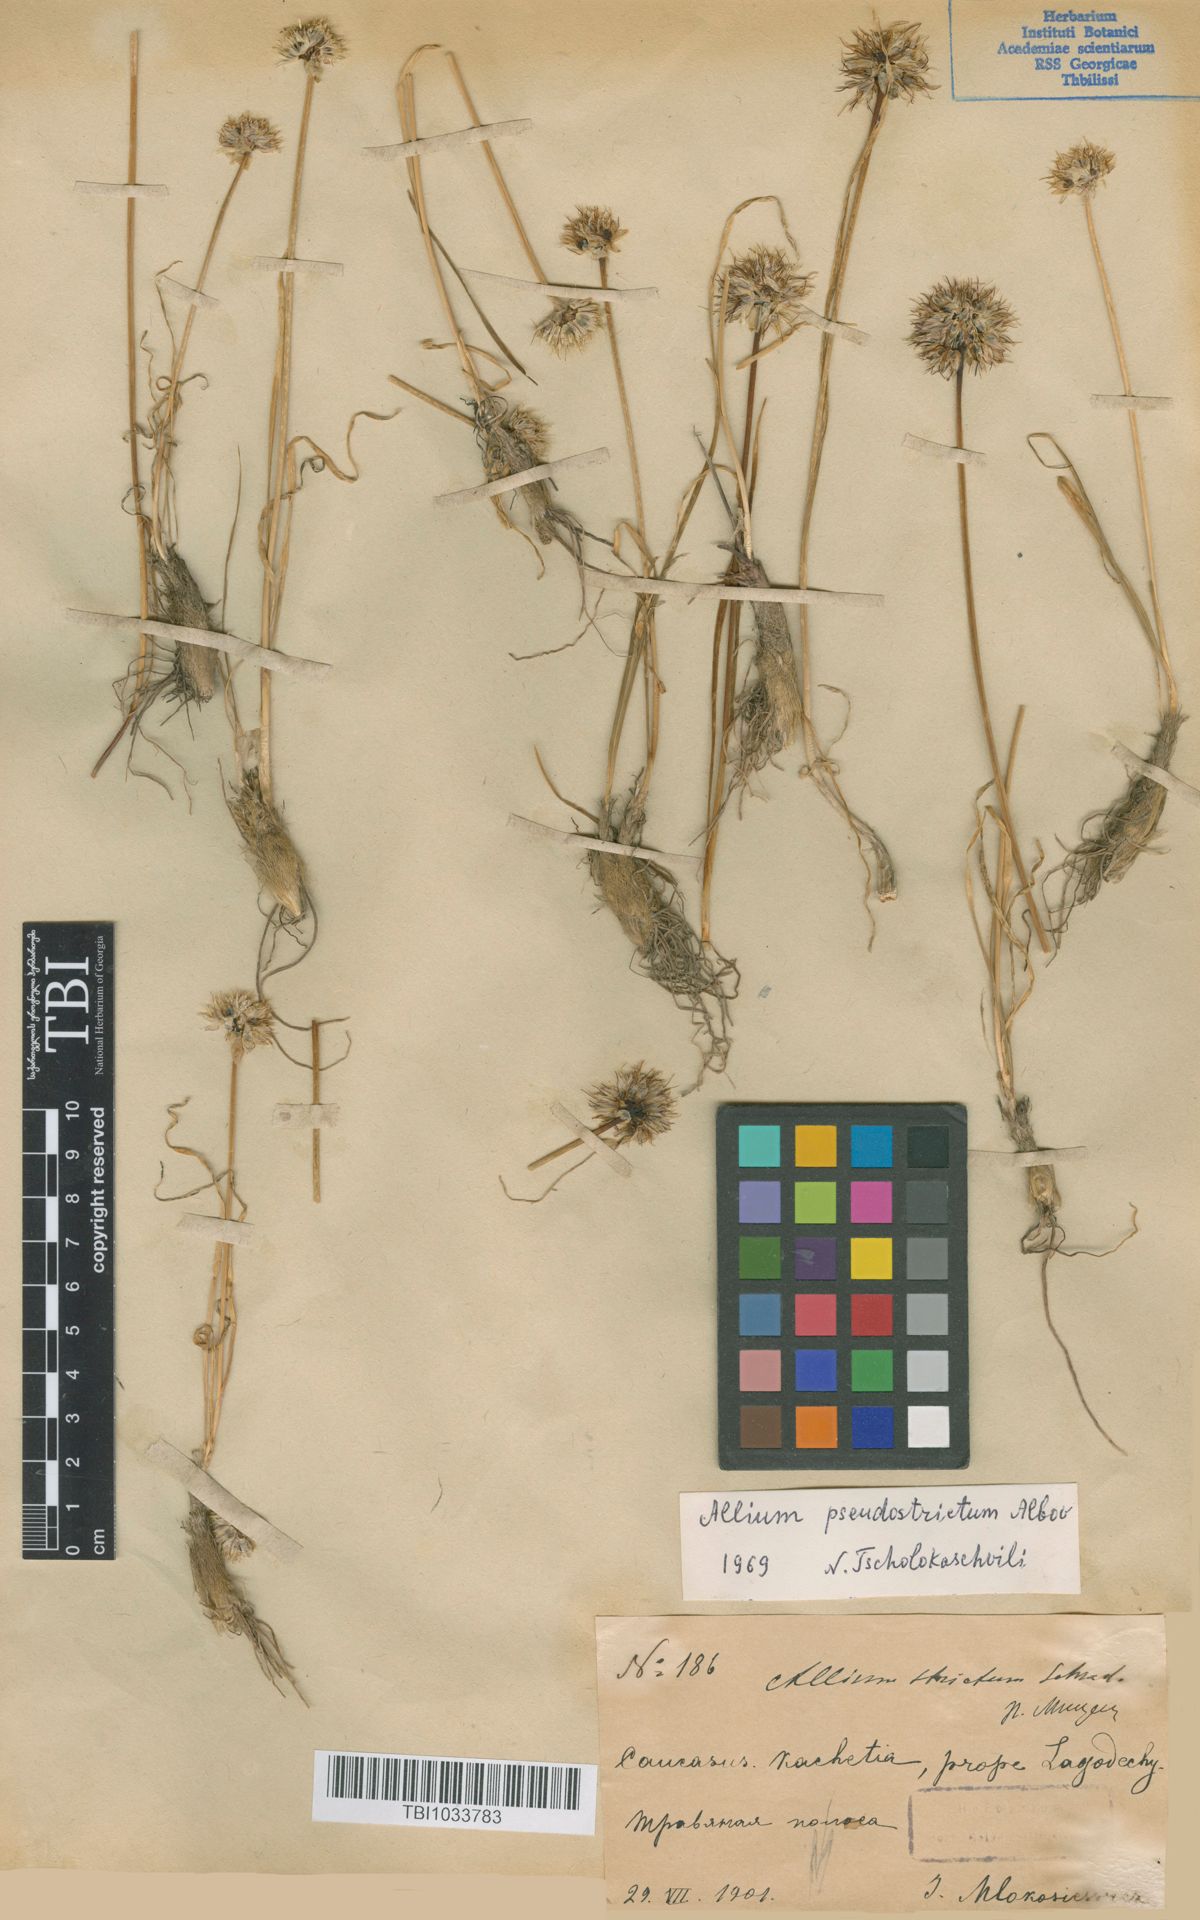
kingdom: Plantae
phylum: Tracheophyta
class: Liliopsida
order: Asparagales
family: Amaryllidaceae
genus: Allium
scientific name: Allium pseudostrictum
